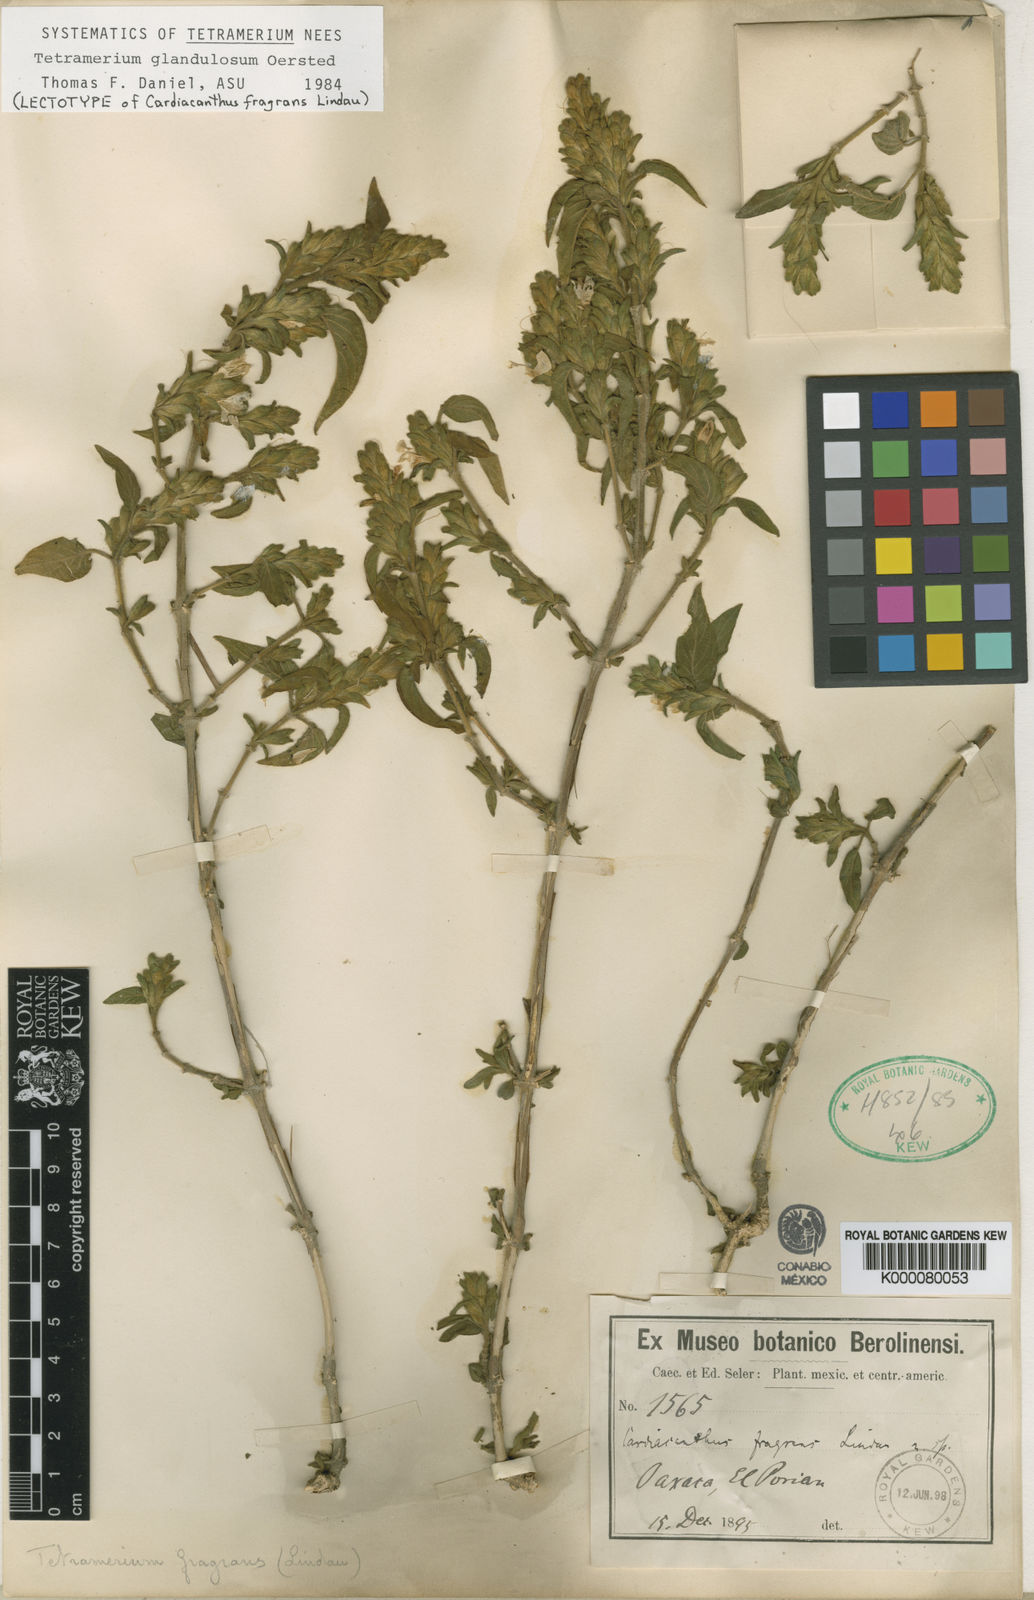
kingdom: Plantae
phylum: Tracheophyta
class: Magnoliopsida
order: Lamiales
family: Acanthaceae
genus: Tetramerium
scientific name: Tetramerium glandulosum
